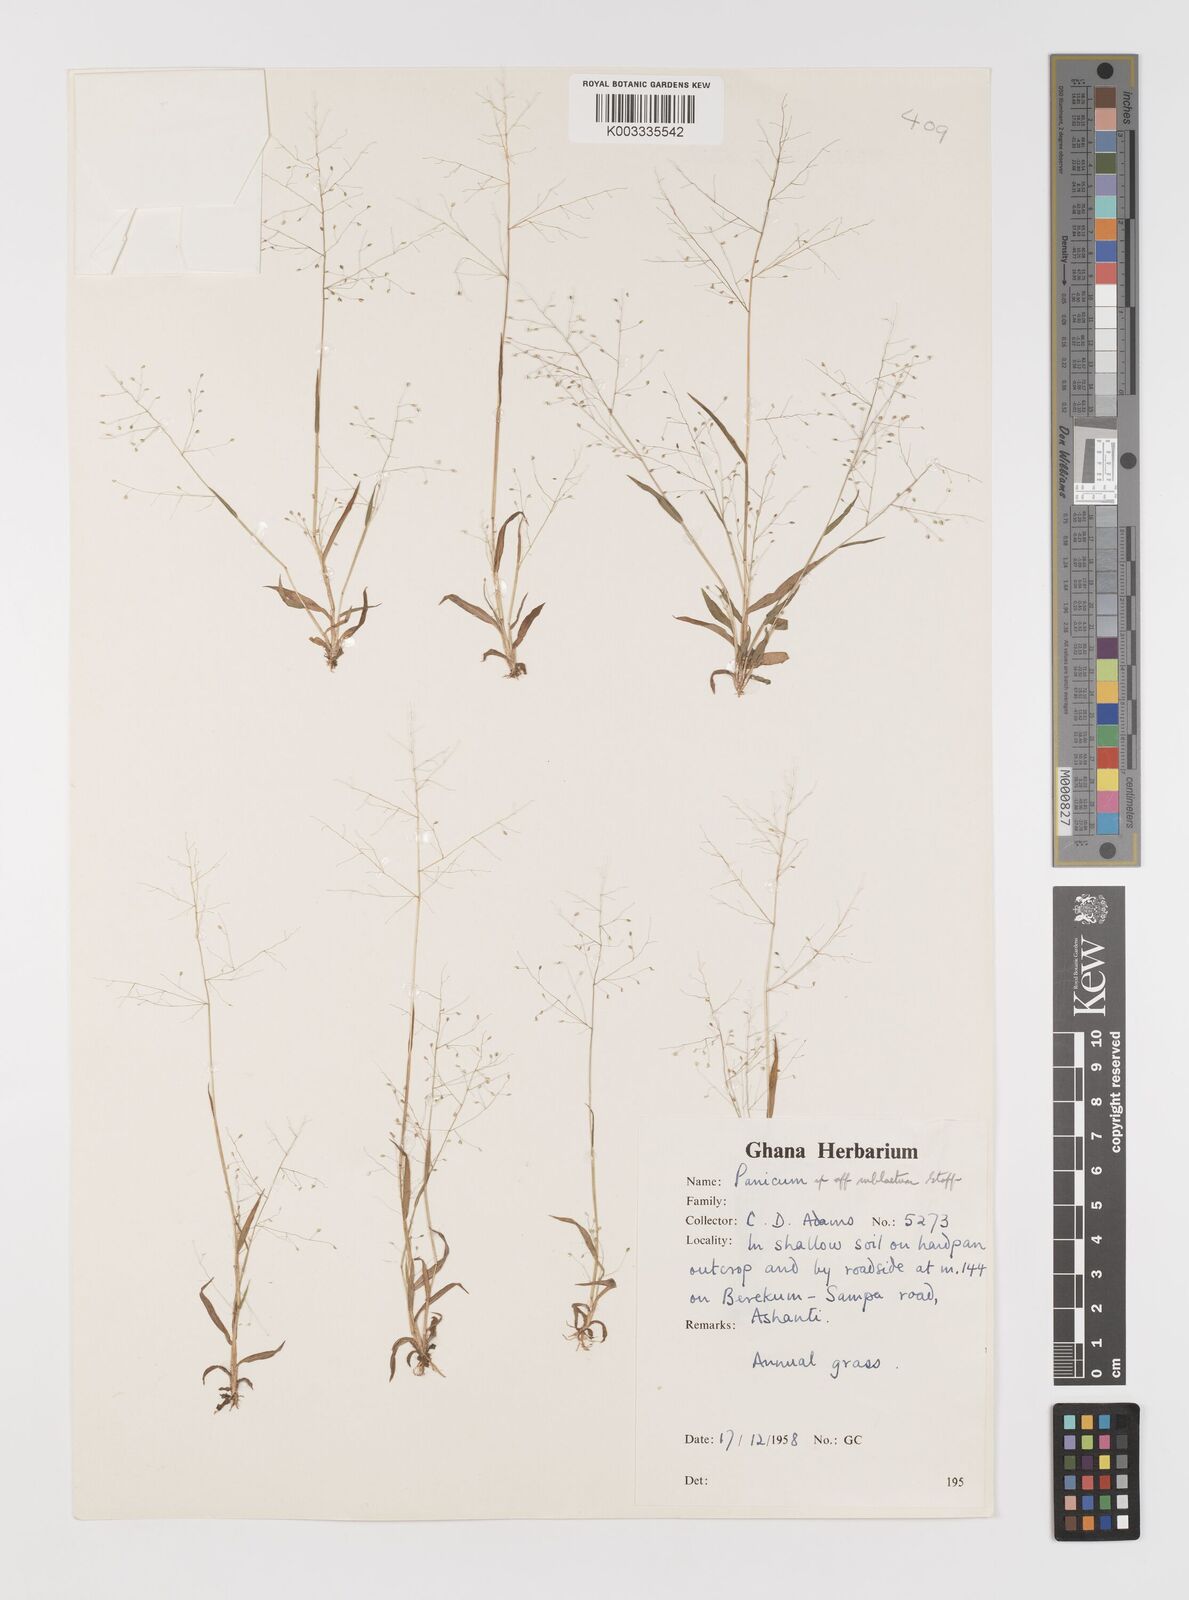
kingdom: Plantae
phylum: Tracheophyta
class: Liliopsida
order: Poales
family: Poaceae
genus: Trichanthecium
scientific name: Trichanthecium tenellum
